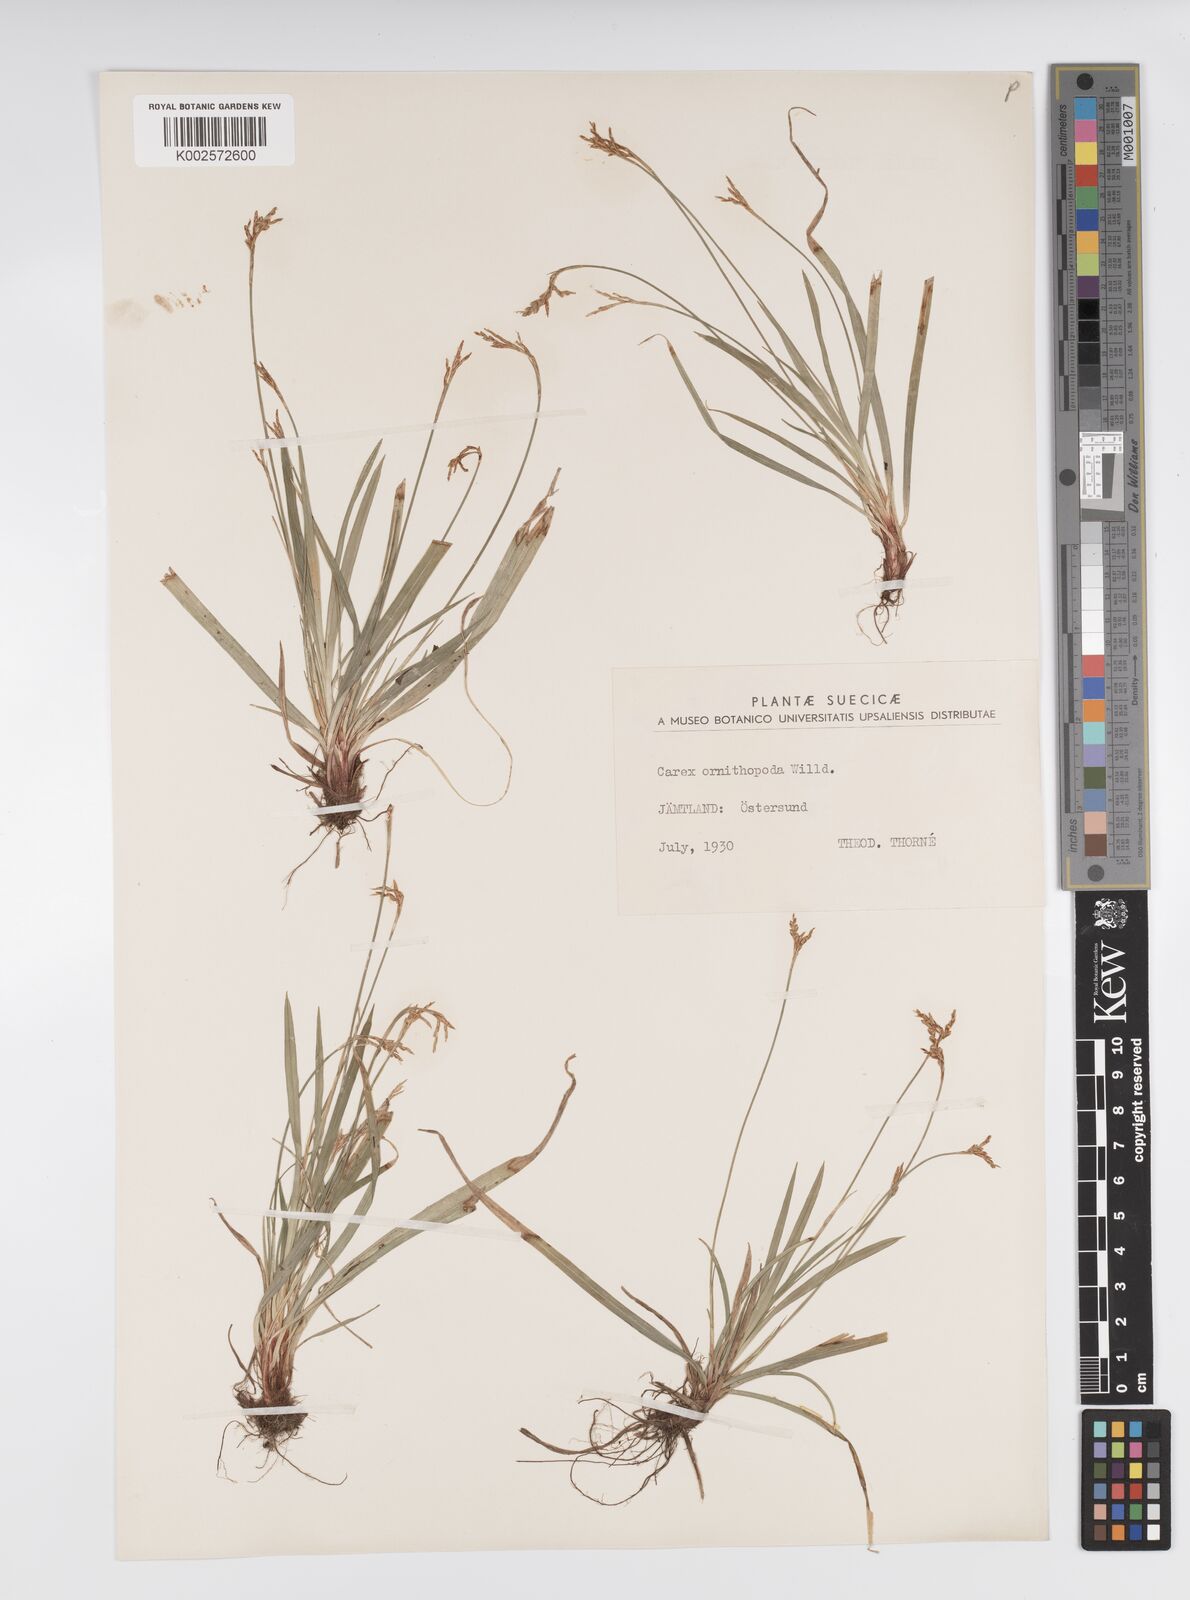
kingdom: Plantae
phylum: Tracheophyta
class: Liliopsida
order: Poales
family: Cyperaceae
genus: Carex
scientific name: Carex ornithopoda
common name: Bird's-foot sedge
